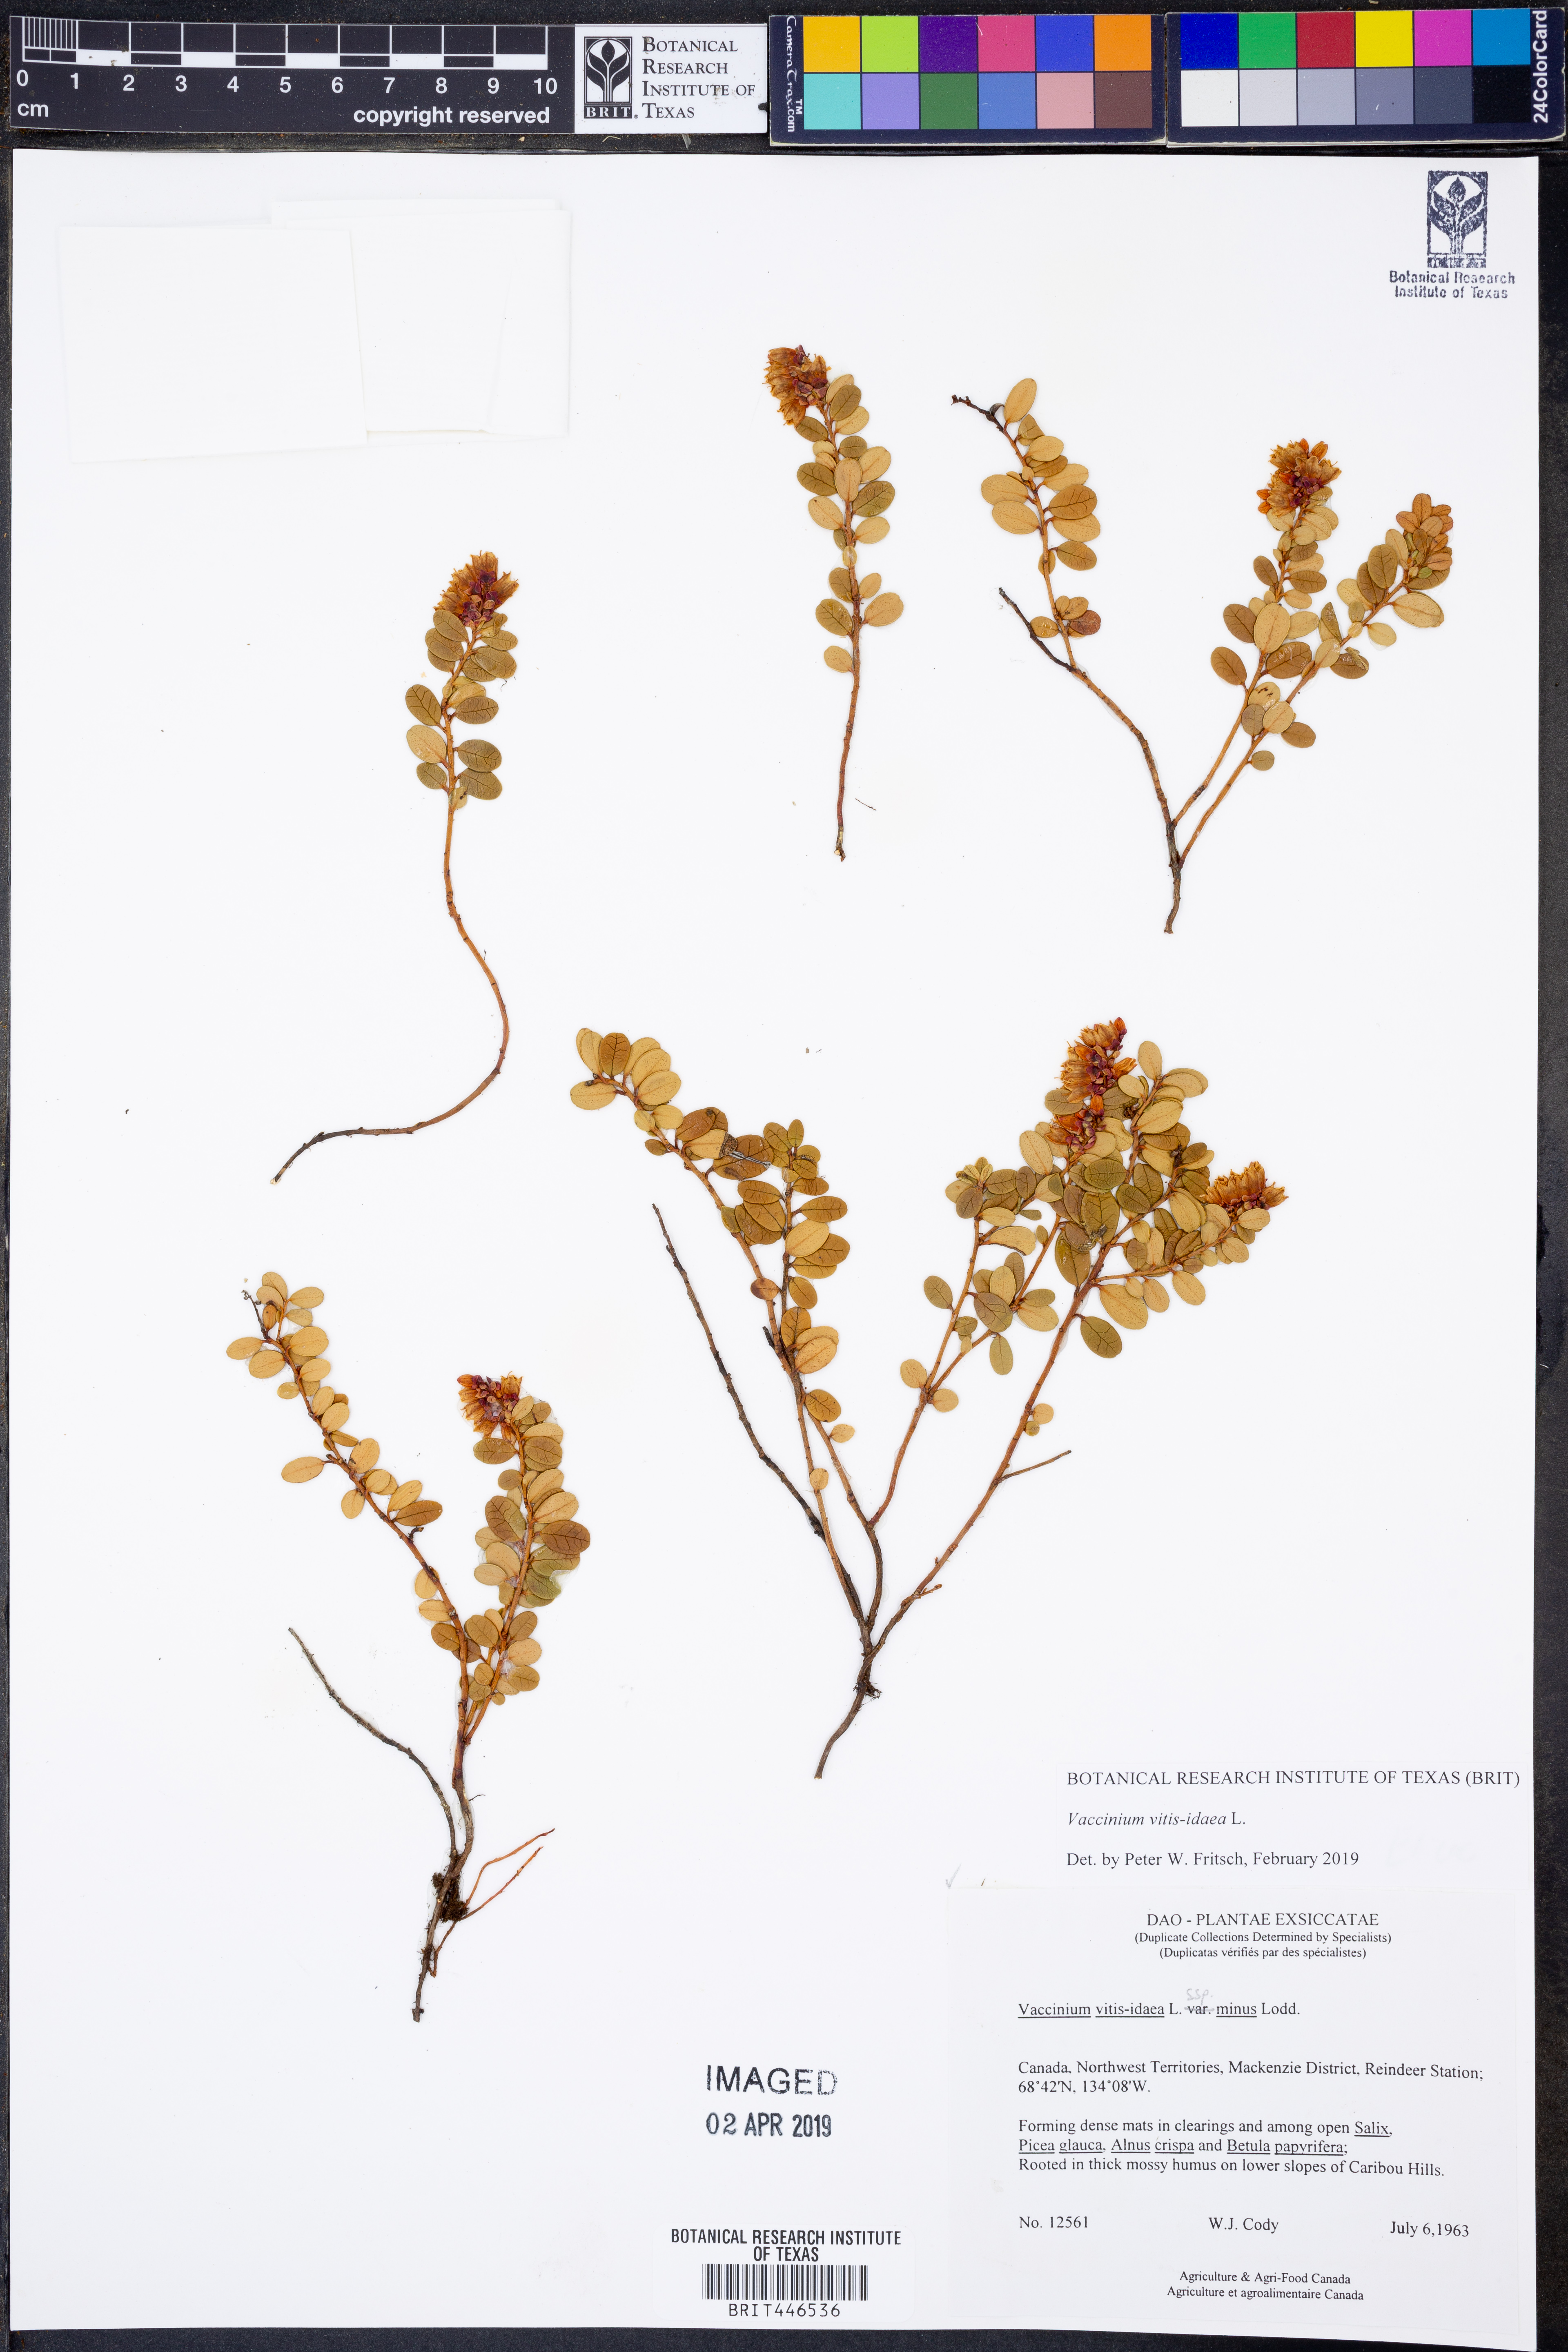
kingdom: Plantae
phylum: Tracheophyta
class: Magnoliopsida
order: Ericales
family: Ericaceae
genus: Vaccinium
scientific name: Vaccinium vitis-idaea
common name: Cowberry
